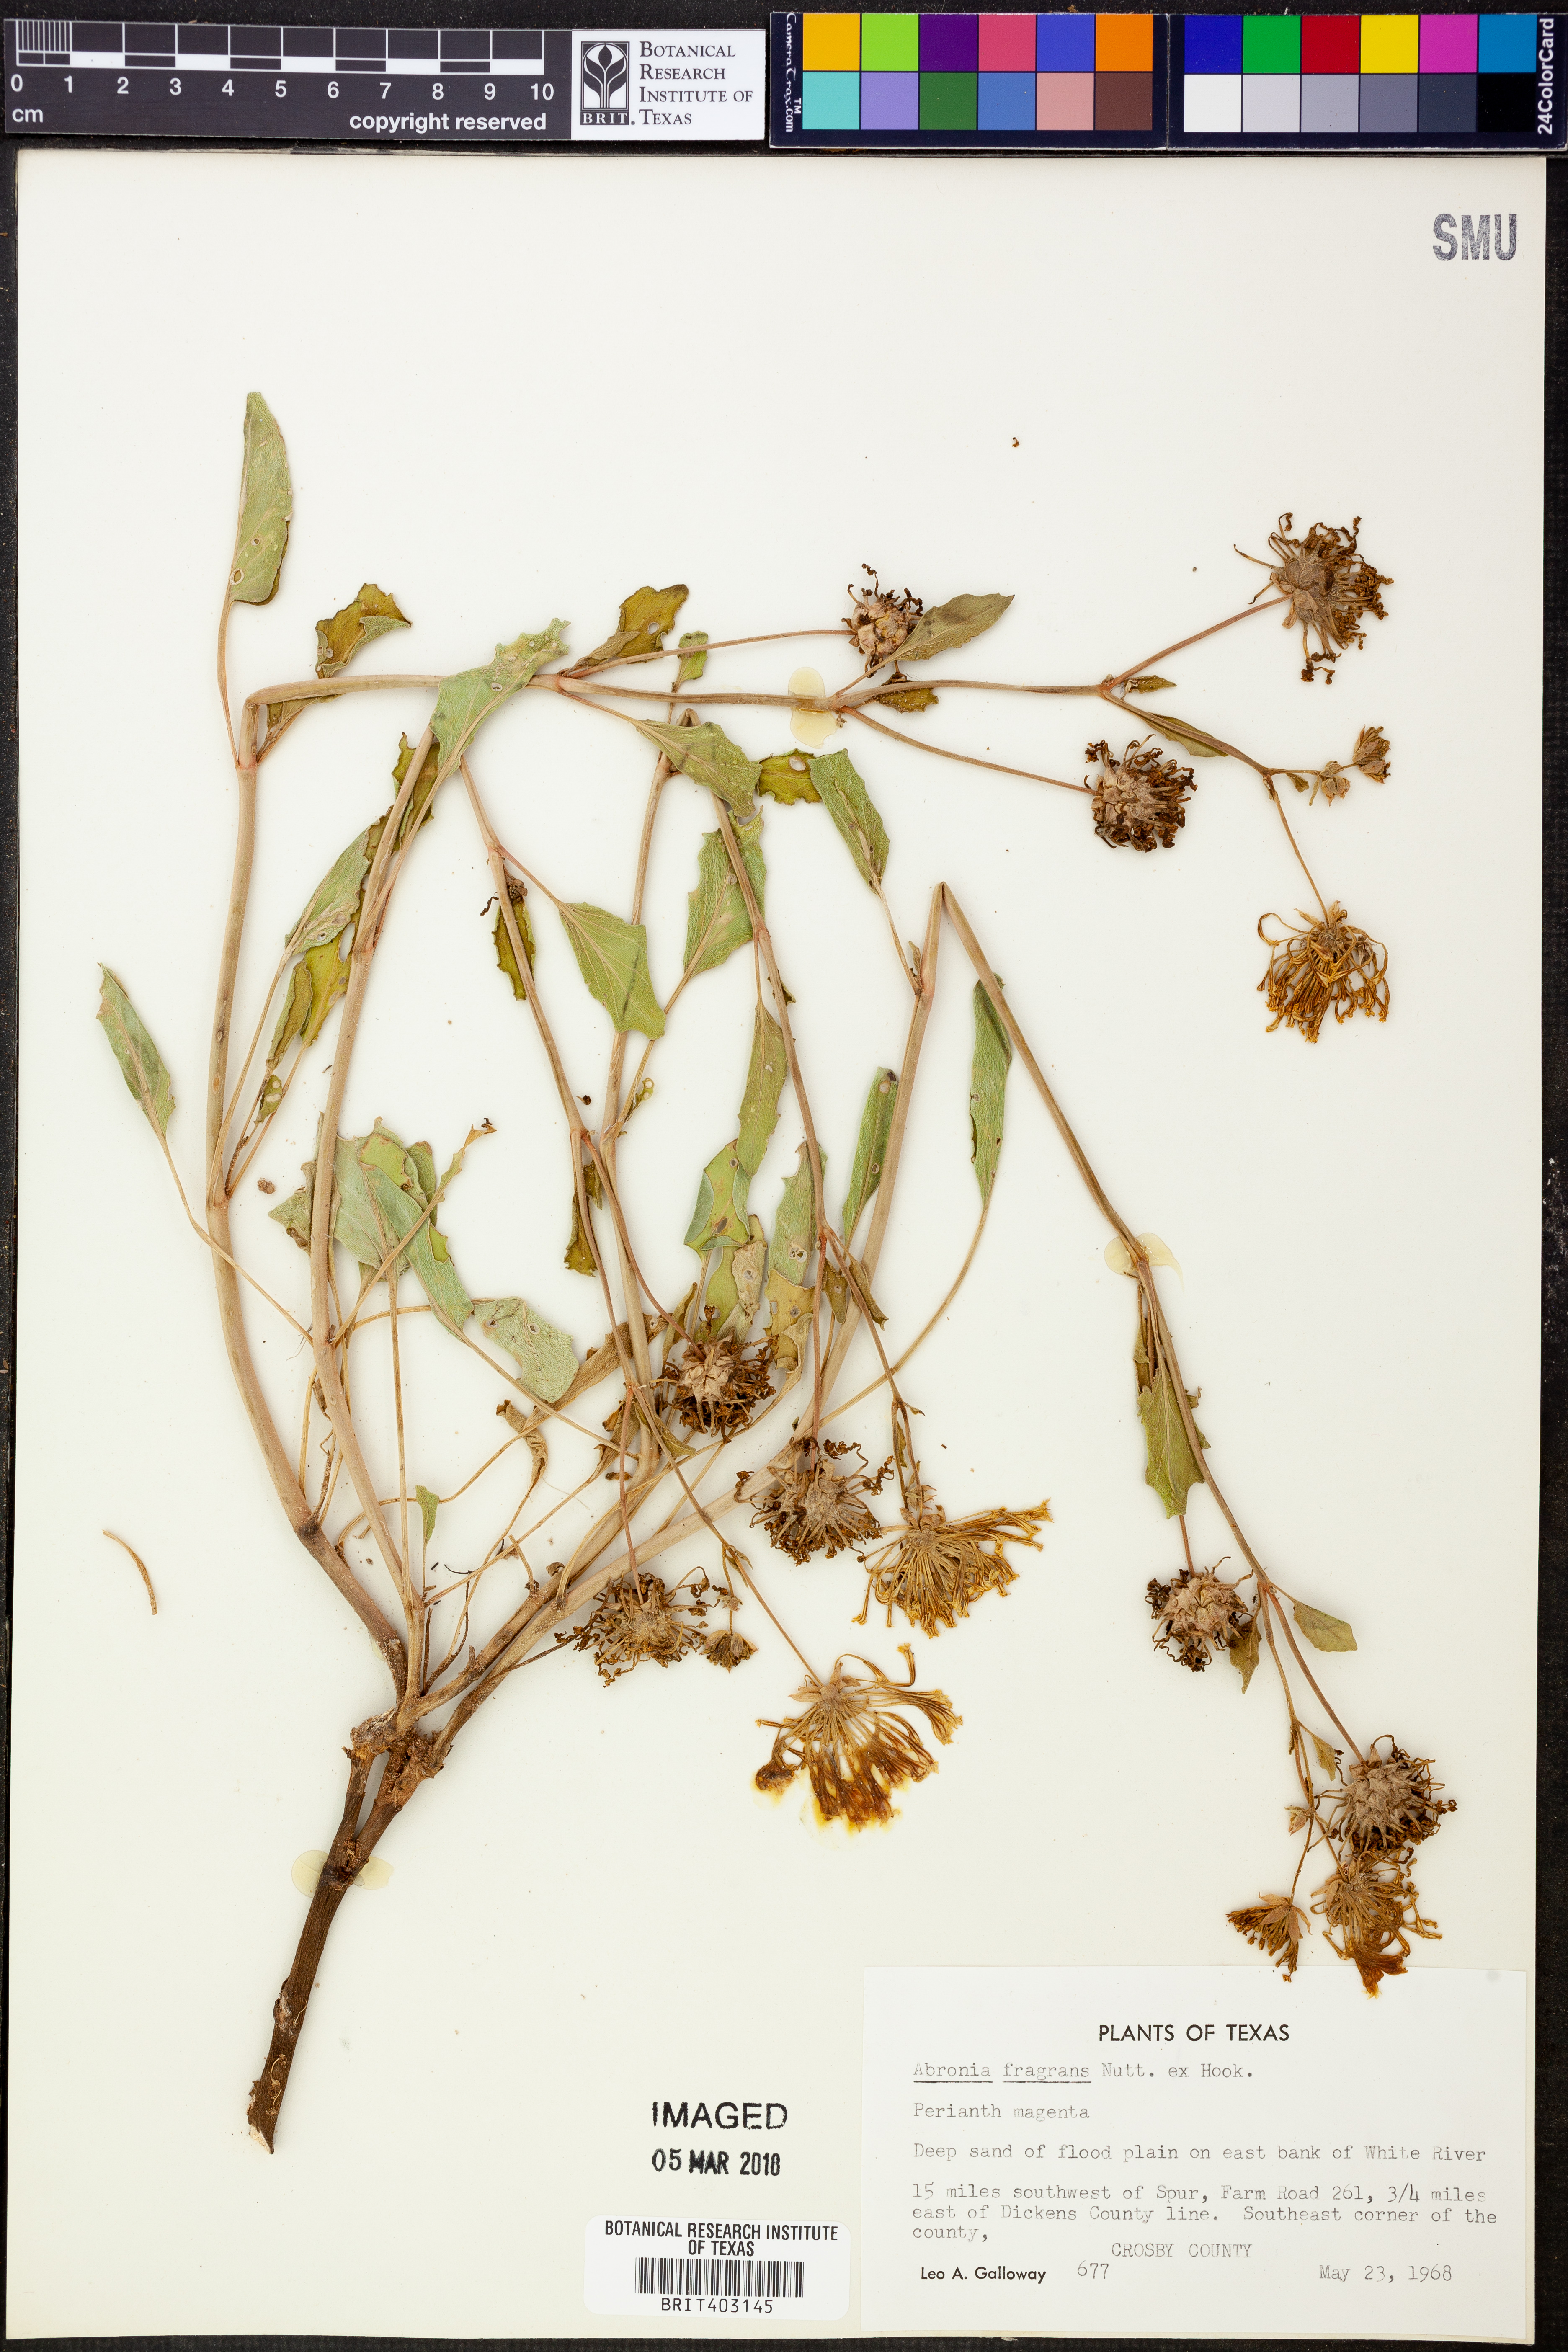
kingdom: Plantae
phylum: Tracheophyta
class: Magnoliopsida
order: Caryophyllales
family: Nyctaginaceae
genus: Abronia
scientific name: Abronia fragrans
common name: Fragrant sand-verbena
